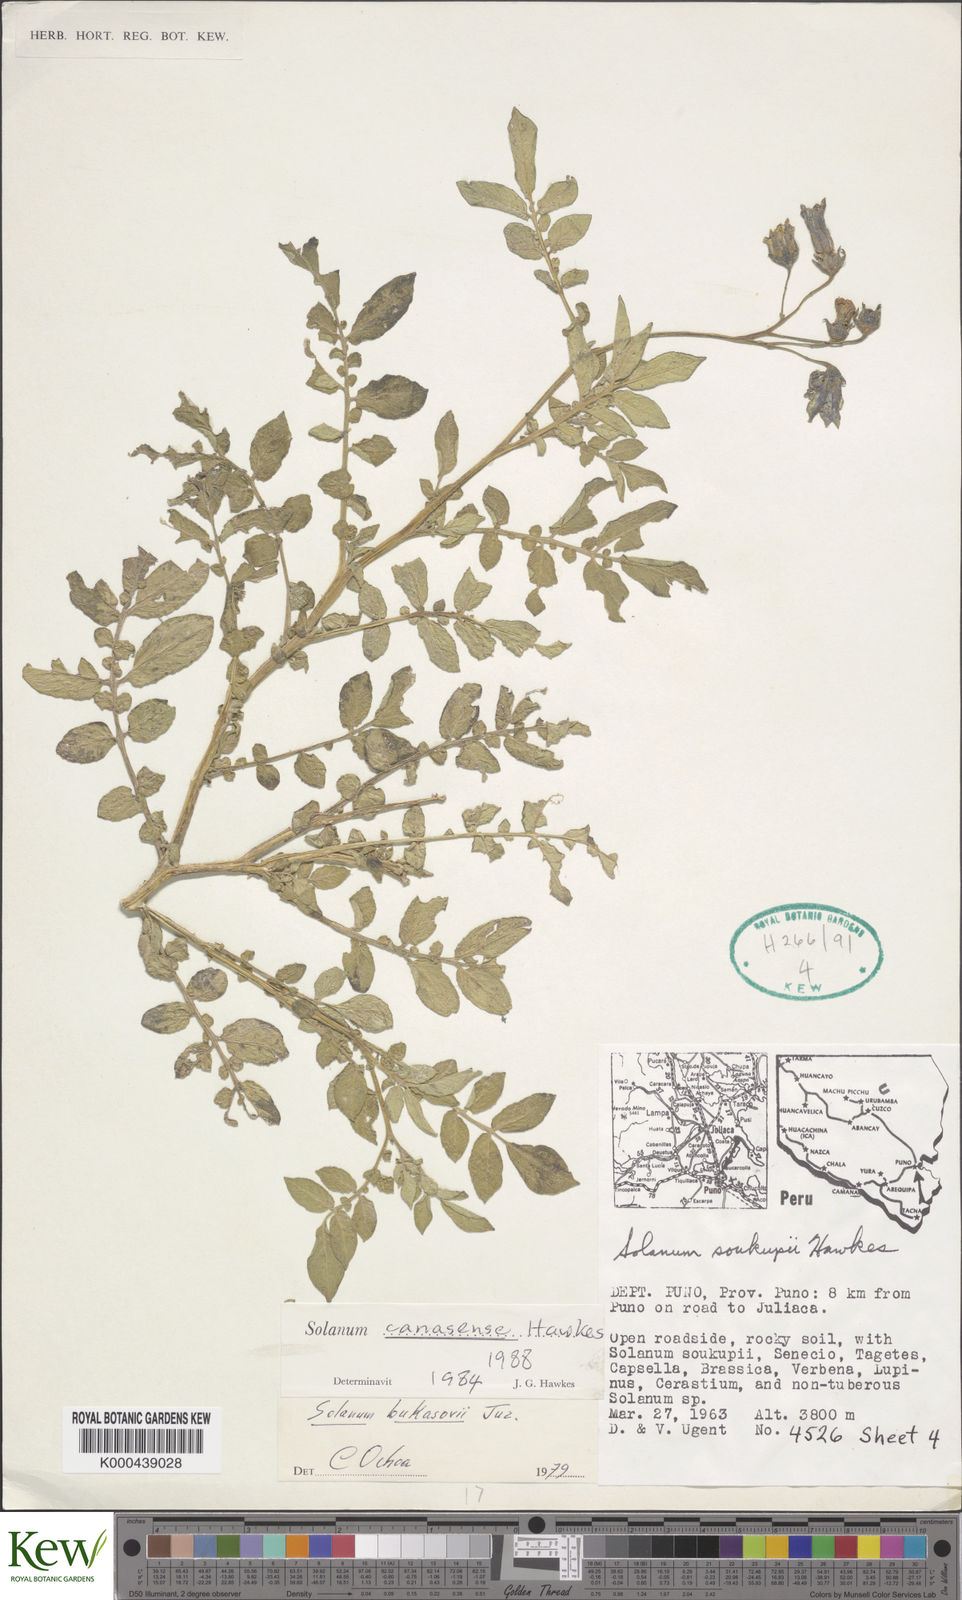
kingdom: Plantae
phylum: Tracheophyta
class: Magnoliopsida
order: Solanales
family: Solanaceae
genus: Solanum
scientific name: Solanum candolleanum
